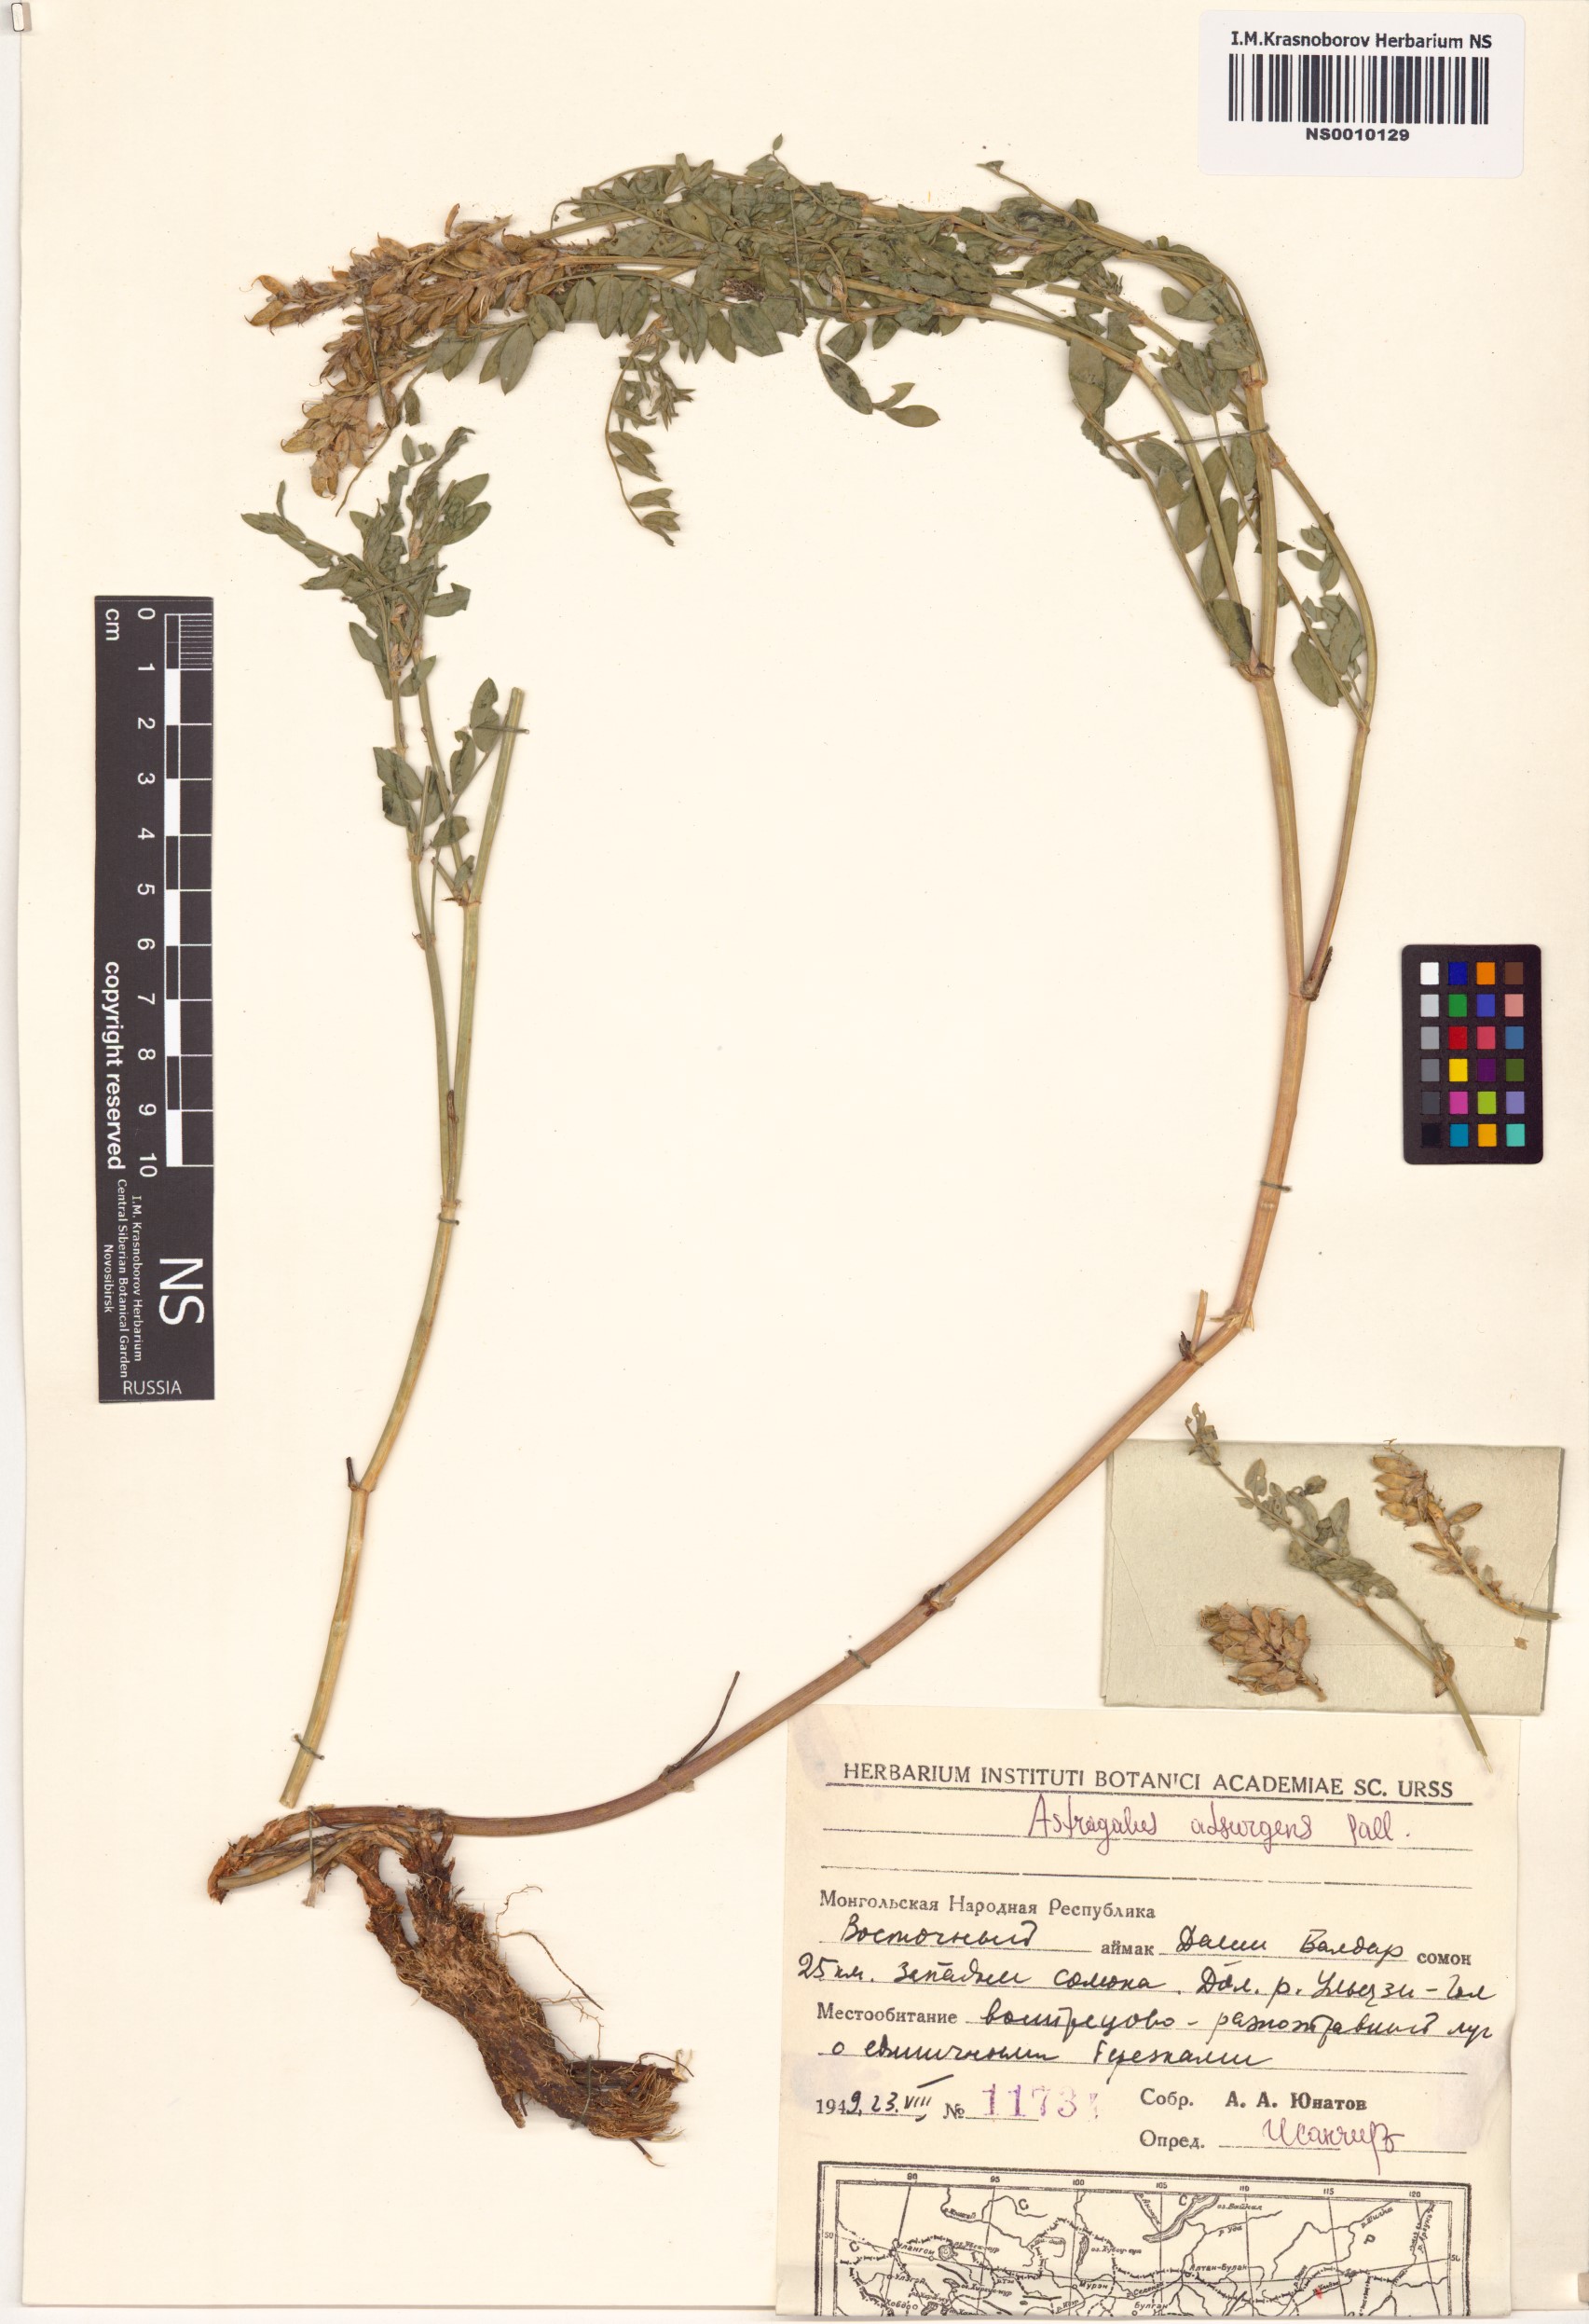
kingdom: Plantae
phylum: Tracheophyta
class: Magnoliopsida
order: Fabales
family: Fabaceae
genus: Astragalus
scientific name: Astragalus laxmannii
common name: Laxmann's milk-vetch
